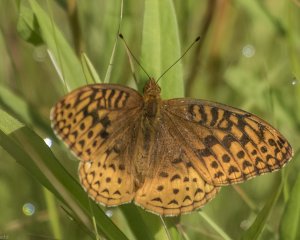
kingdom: Animalia
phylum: Arthropoda
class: Insecta
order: Lepidoptera
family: Nymphalidae
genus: Speyeria
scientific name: Speyeria cybele
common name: Great Spangled Fritillary
